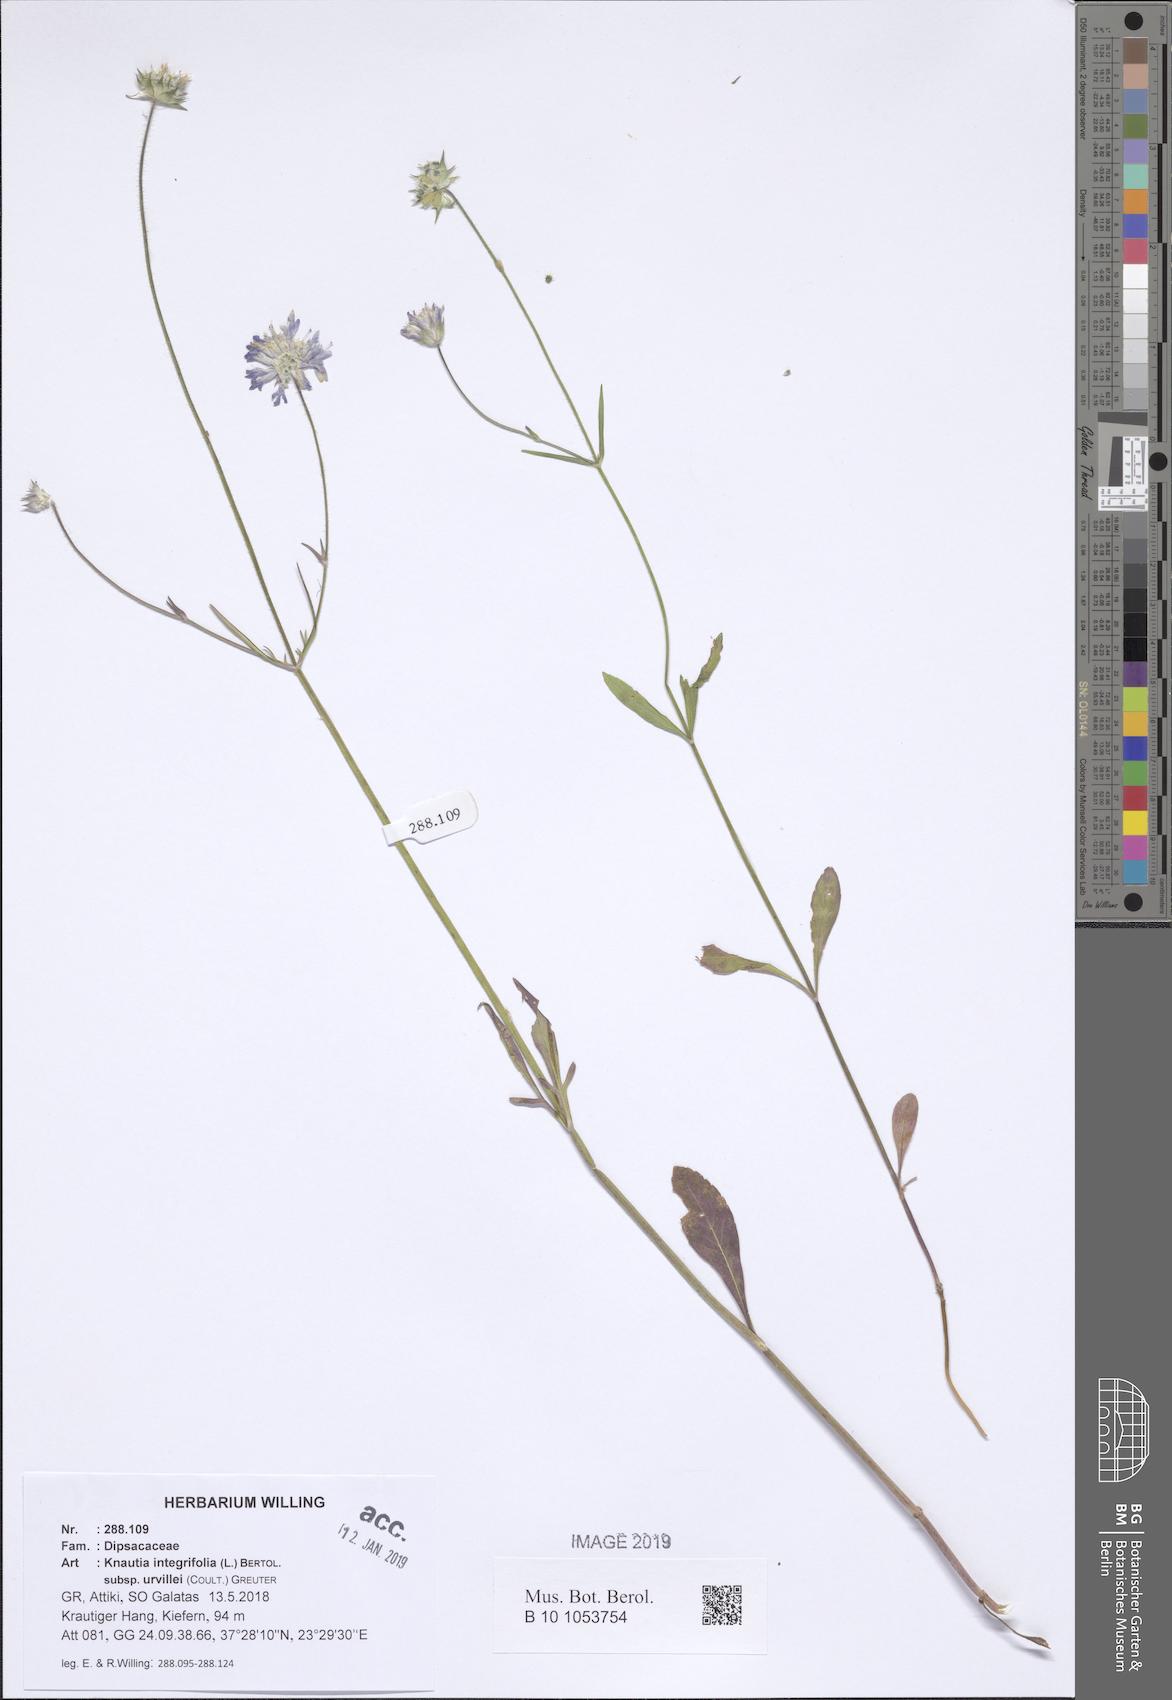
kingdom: Plantae
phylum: Tracheophyta
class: Magnoliopsida
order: Dipsacales
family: Caprifoliaceae
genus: Knautia
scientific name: Knautia integrifolia
